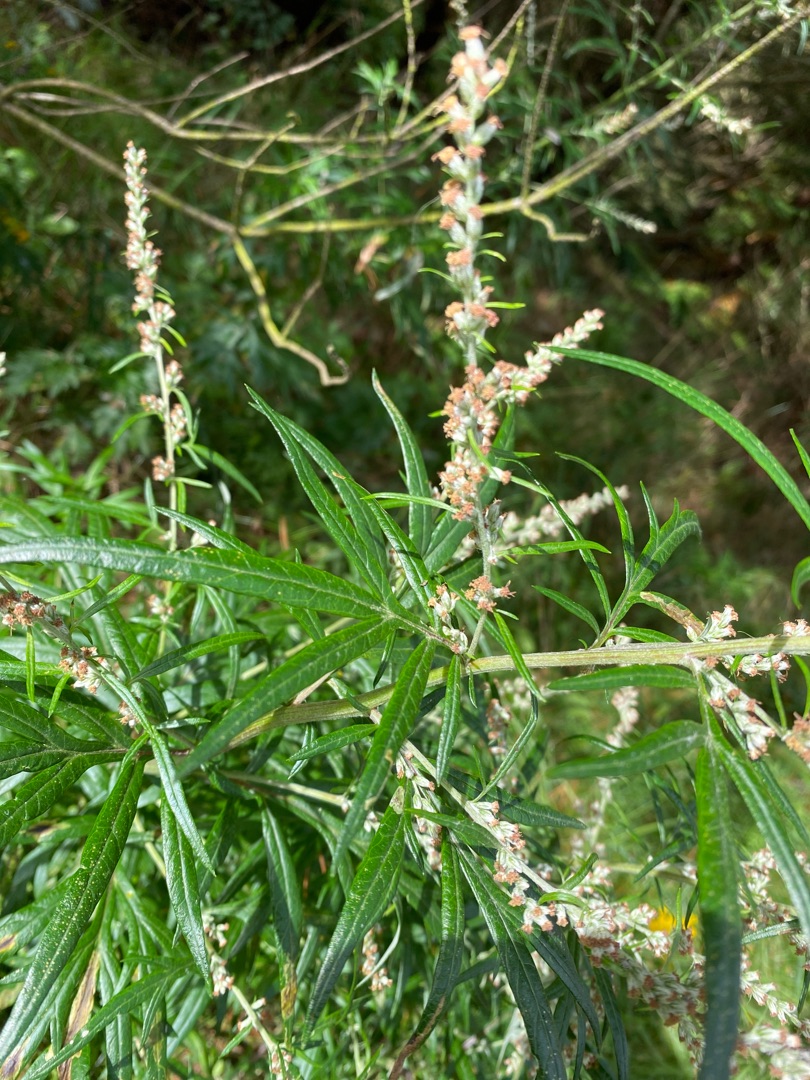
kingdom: Plantae
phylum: Tracheophyta
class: Magnoliopsida
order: Asterales
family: Asteraceae
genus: Artemisia
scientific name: Artemisia vulgaris
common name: Grå-bynke
